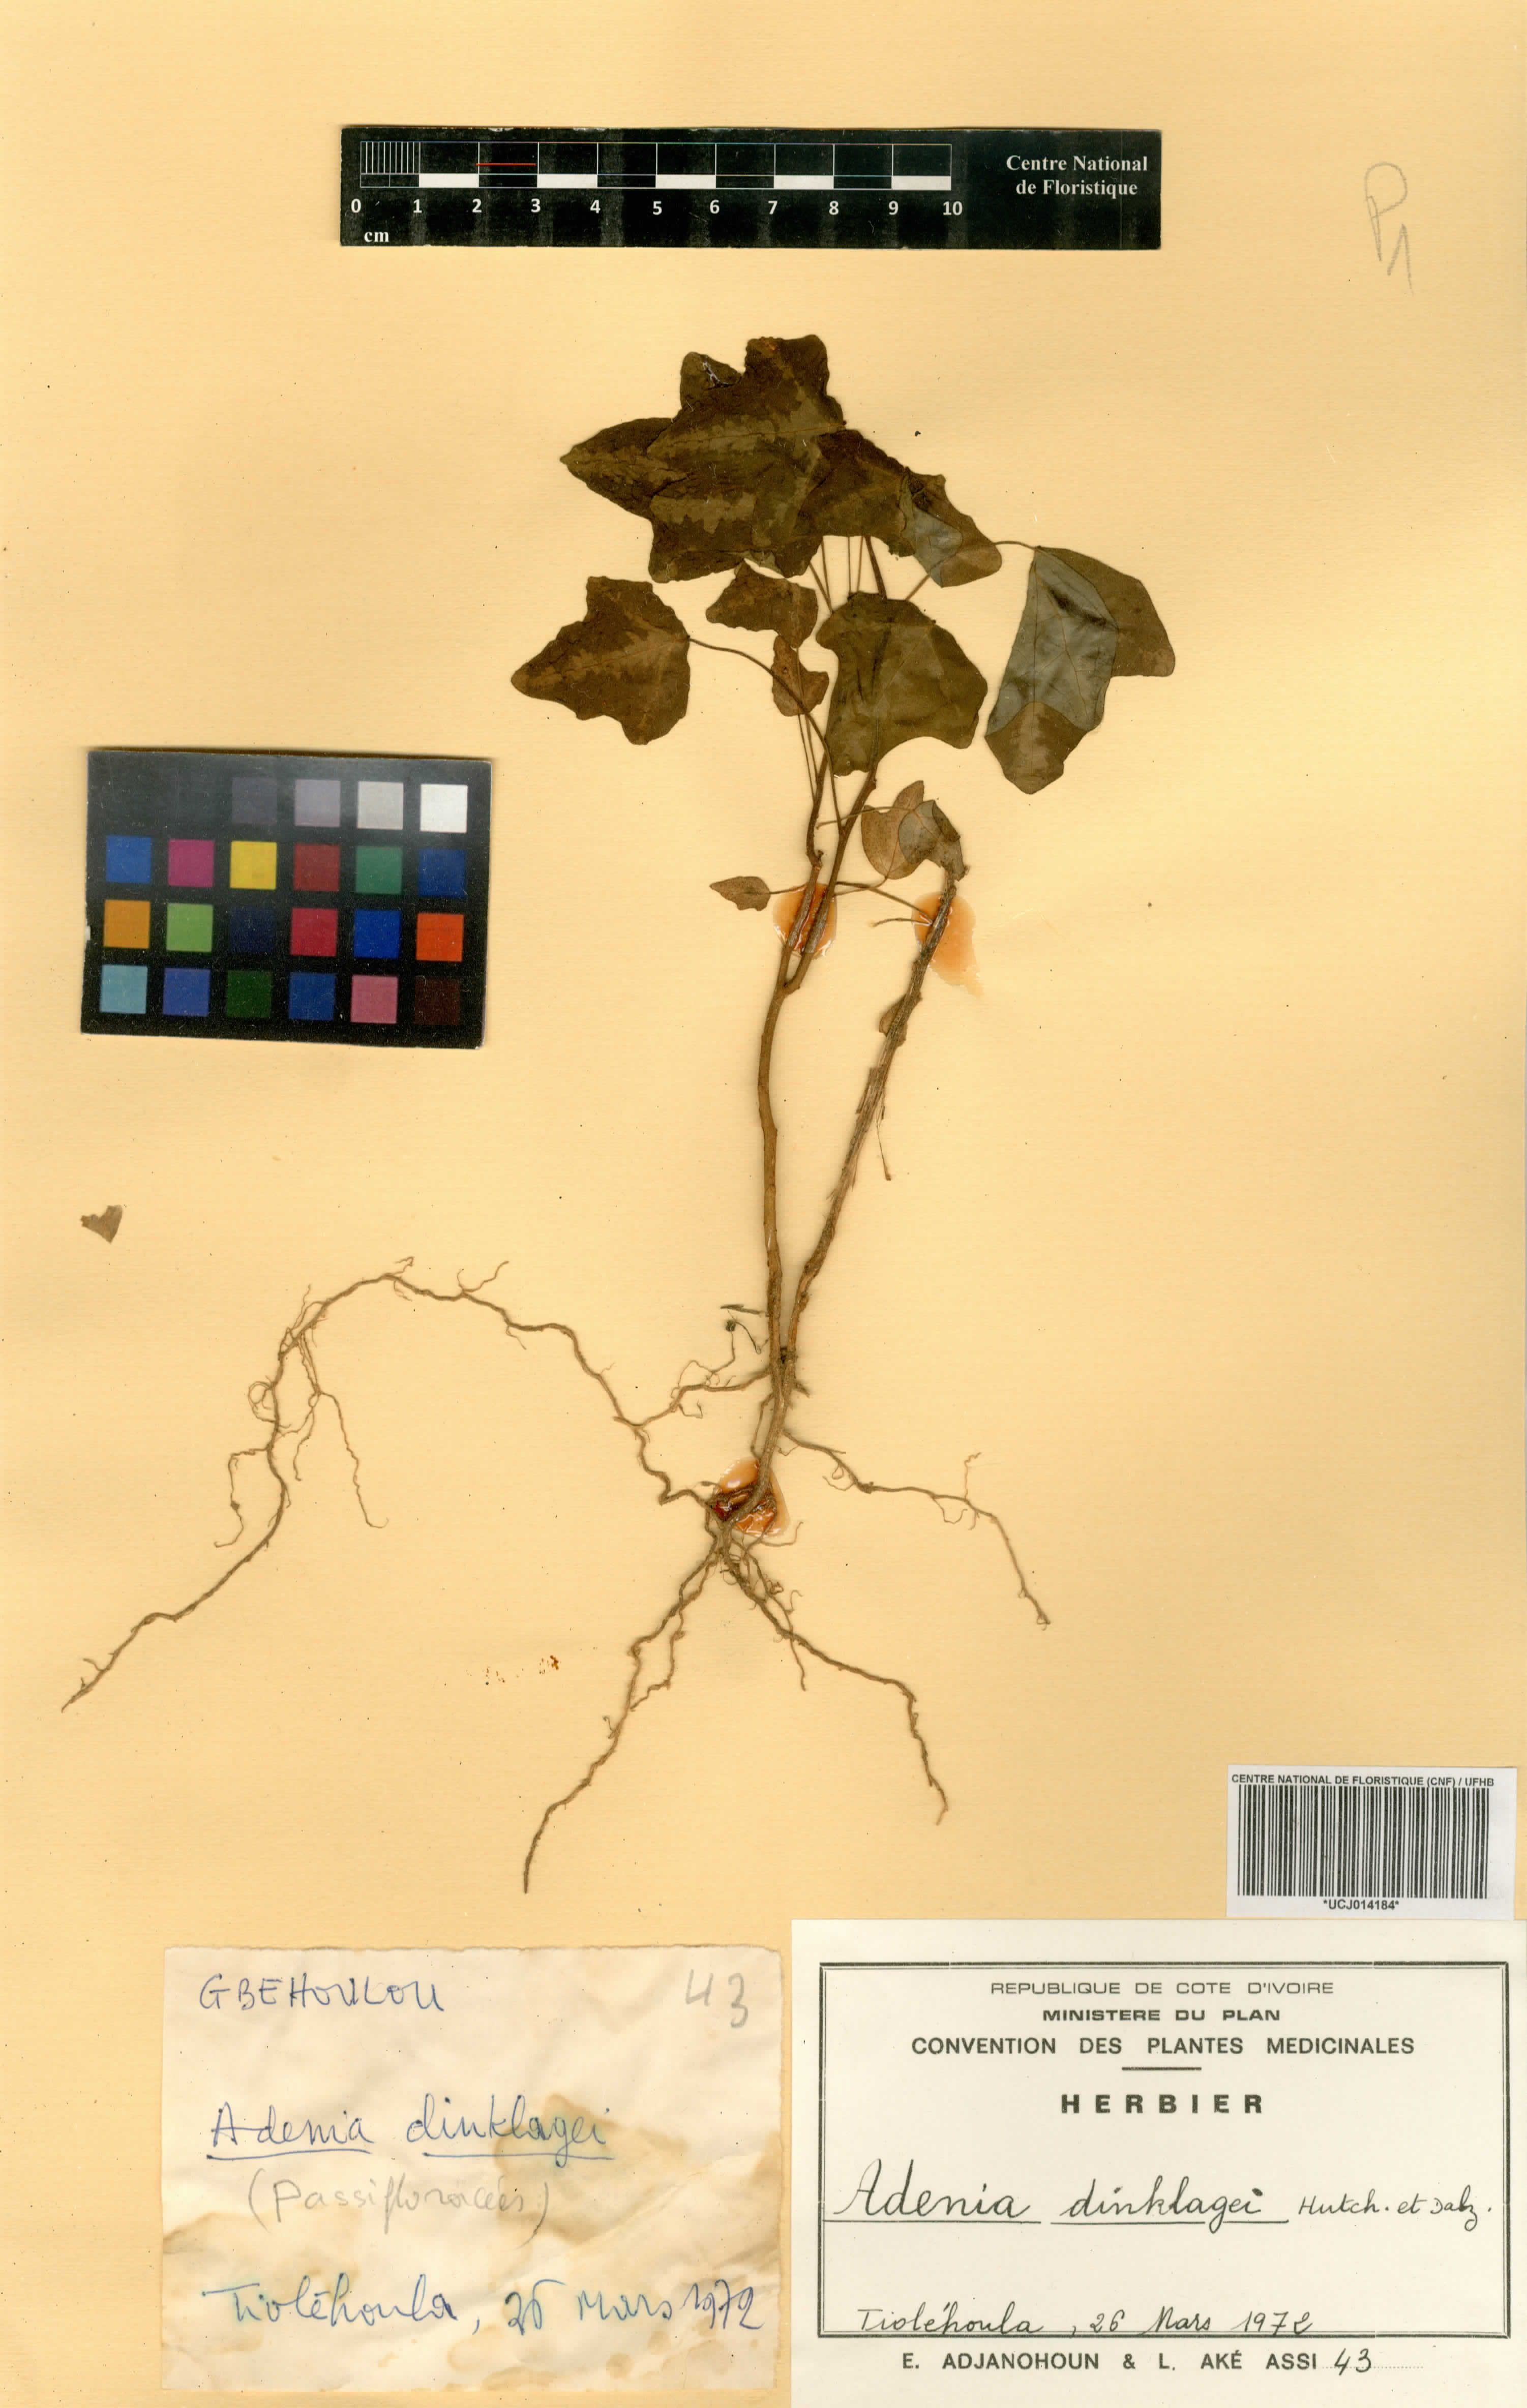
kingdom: Plantae
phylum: Tracheophyta
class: Magnoliopsida
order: Malpighiales
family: Passifloraceae
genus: Adenia
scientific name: Adenia dinklagei
